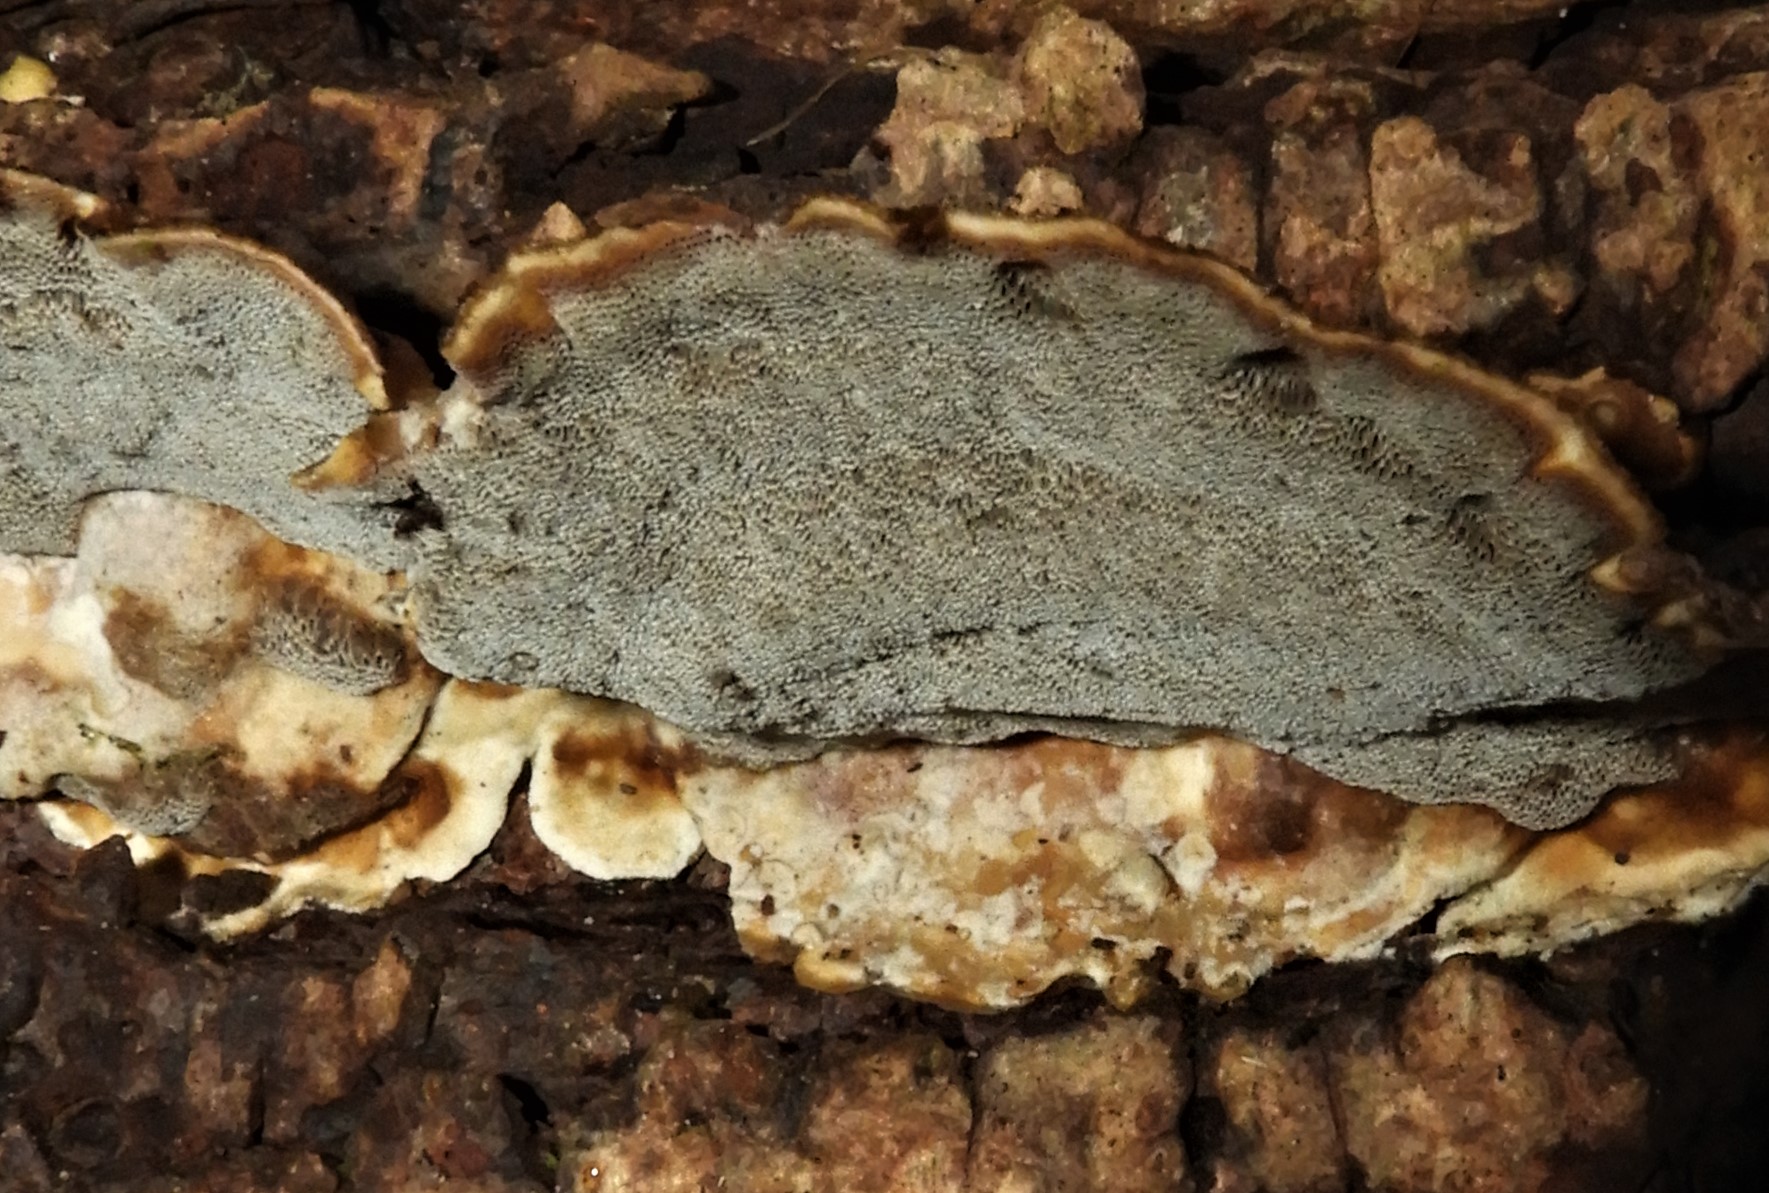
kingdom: Fungi
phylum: Basidiomycota
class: Agaricomycetes
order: Polyporales
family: Phanerochaetaceae
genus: Bjerkandera
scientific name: Bjerkandera adusta
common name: sveden sodporesvamp
